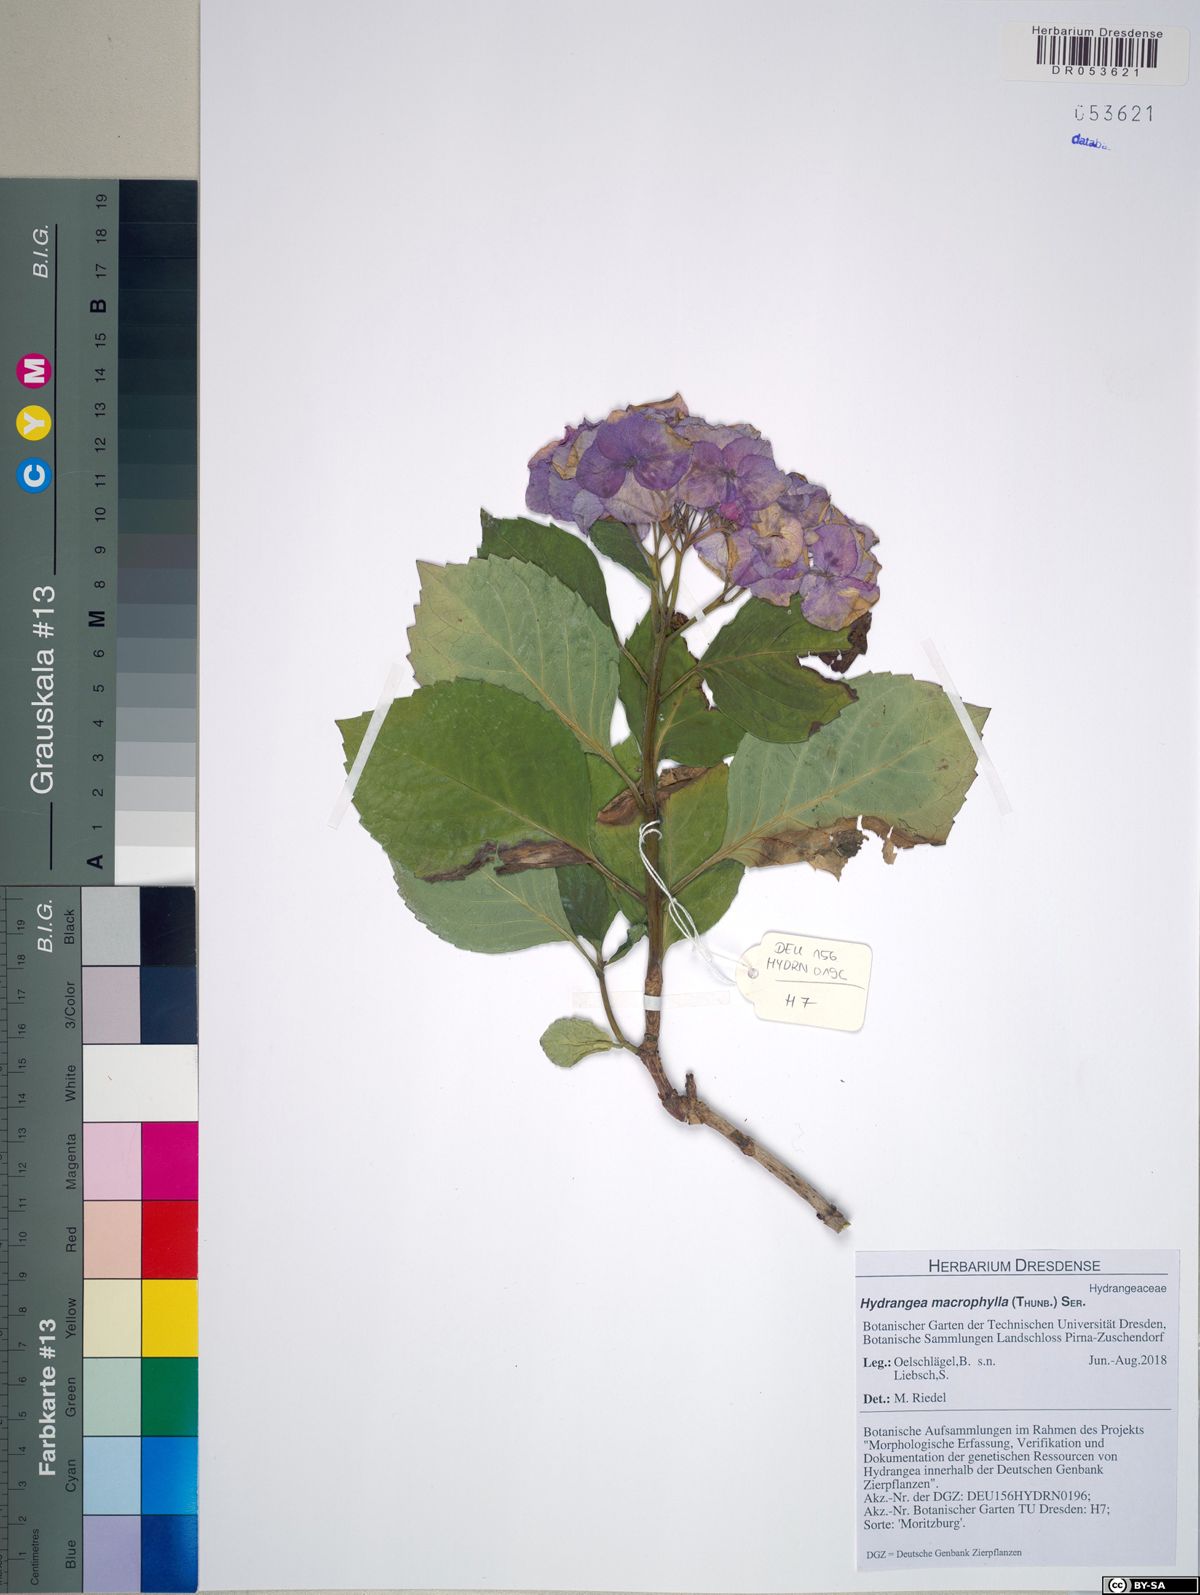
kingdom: Plantae
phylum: Tracheophyta
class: Magnoliopsida
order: Cornales
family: Hydrangeaceae
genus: Hydrangea
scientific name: Hydrangea macrophylla
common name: Hydrangea
